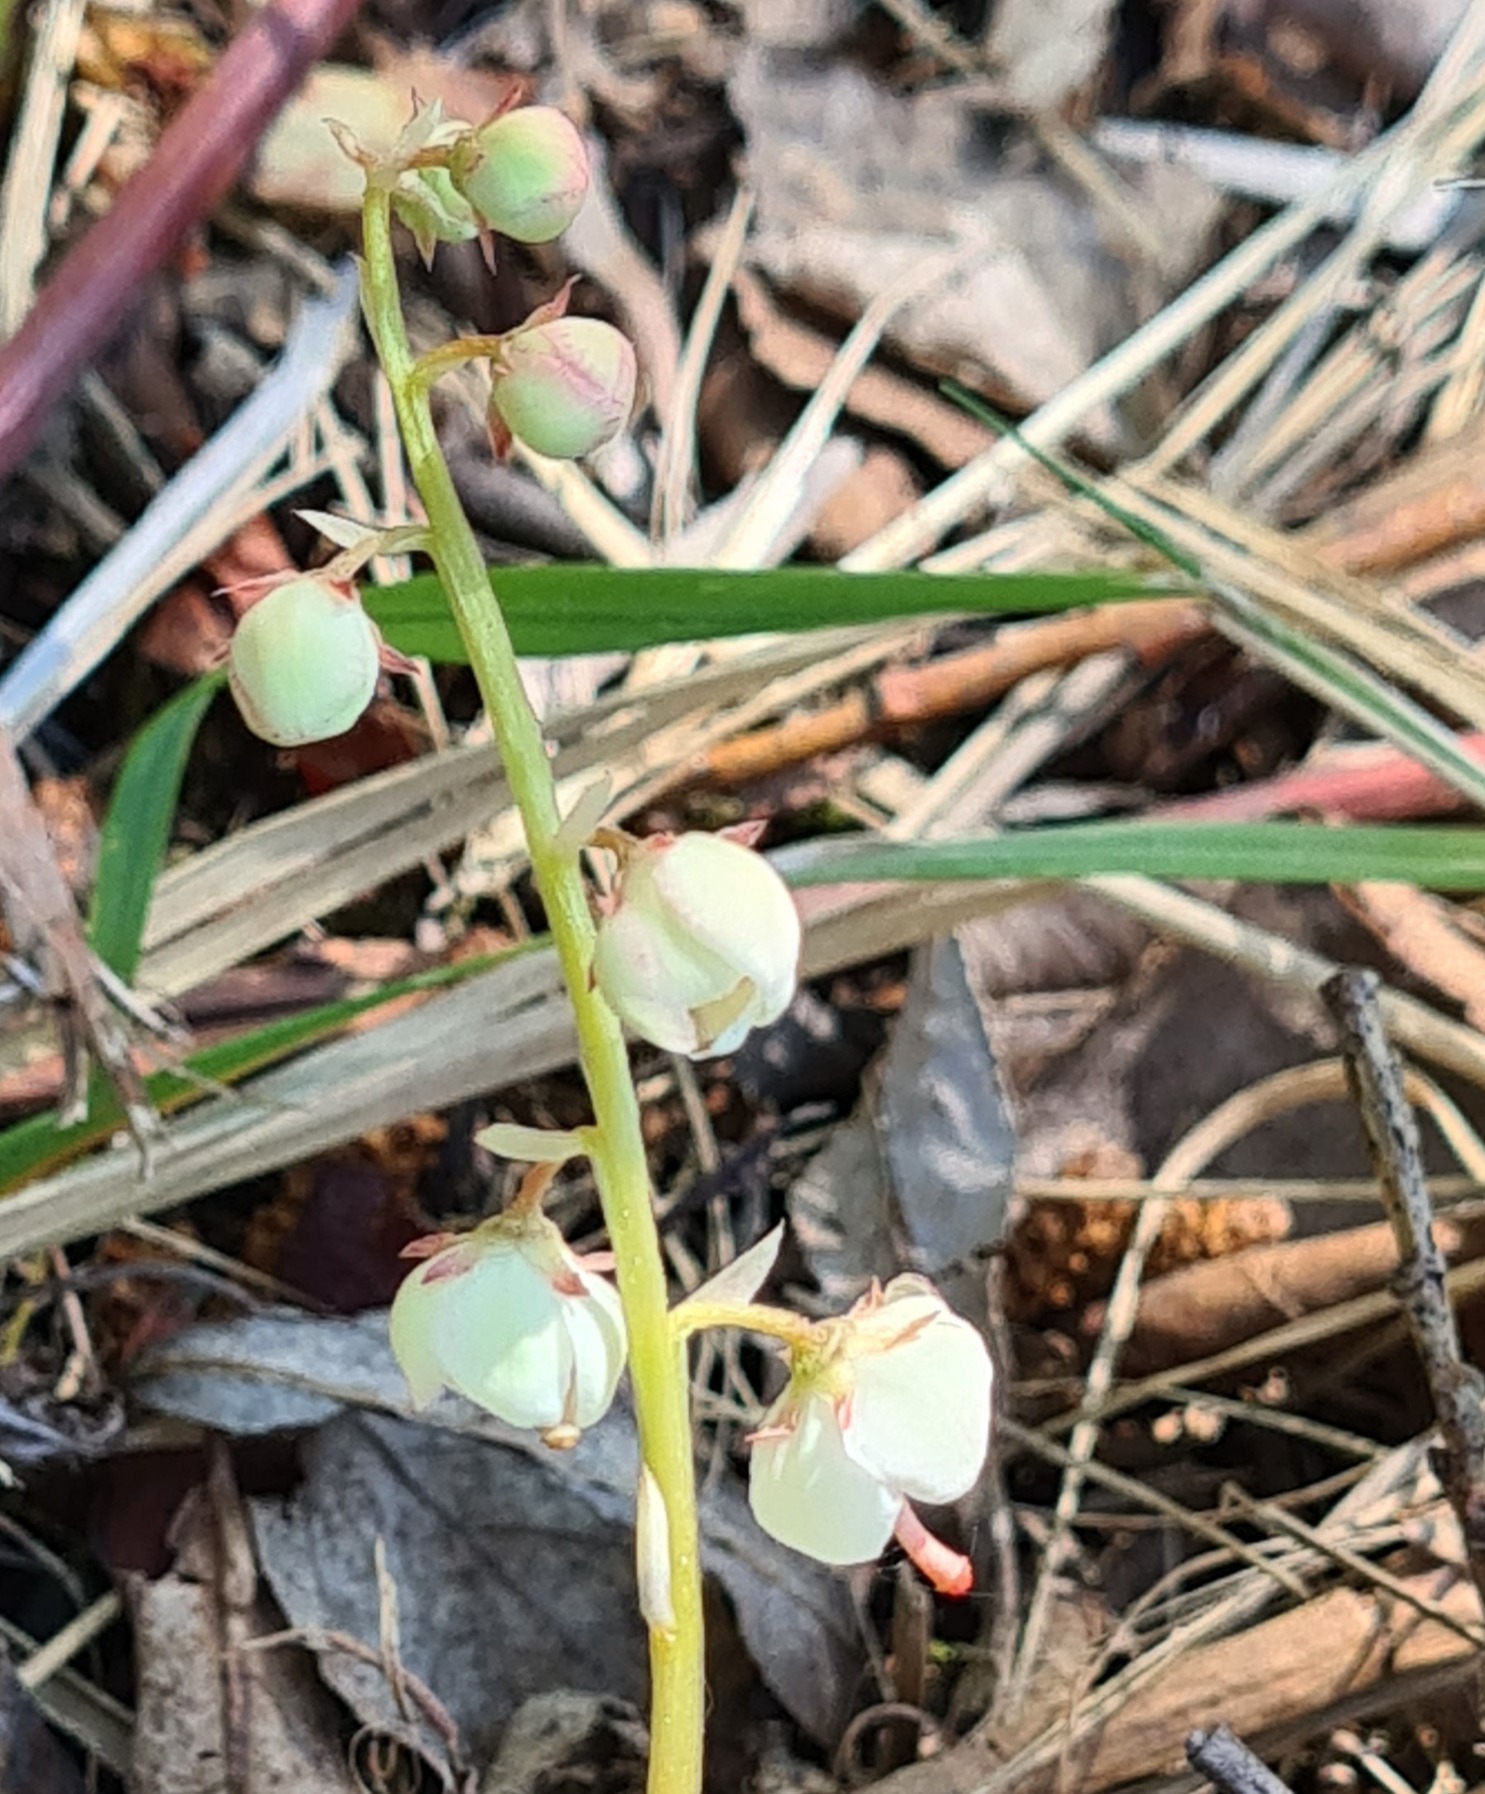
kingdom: Plantae
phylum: Tracheophyta
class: Magnoliopsida
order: Ericales
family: Ericaceae
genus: Pyrola
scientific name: Pyrola rotundifolia
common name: Mose-vintergrøn
